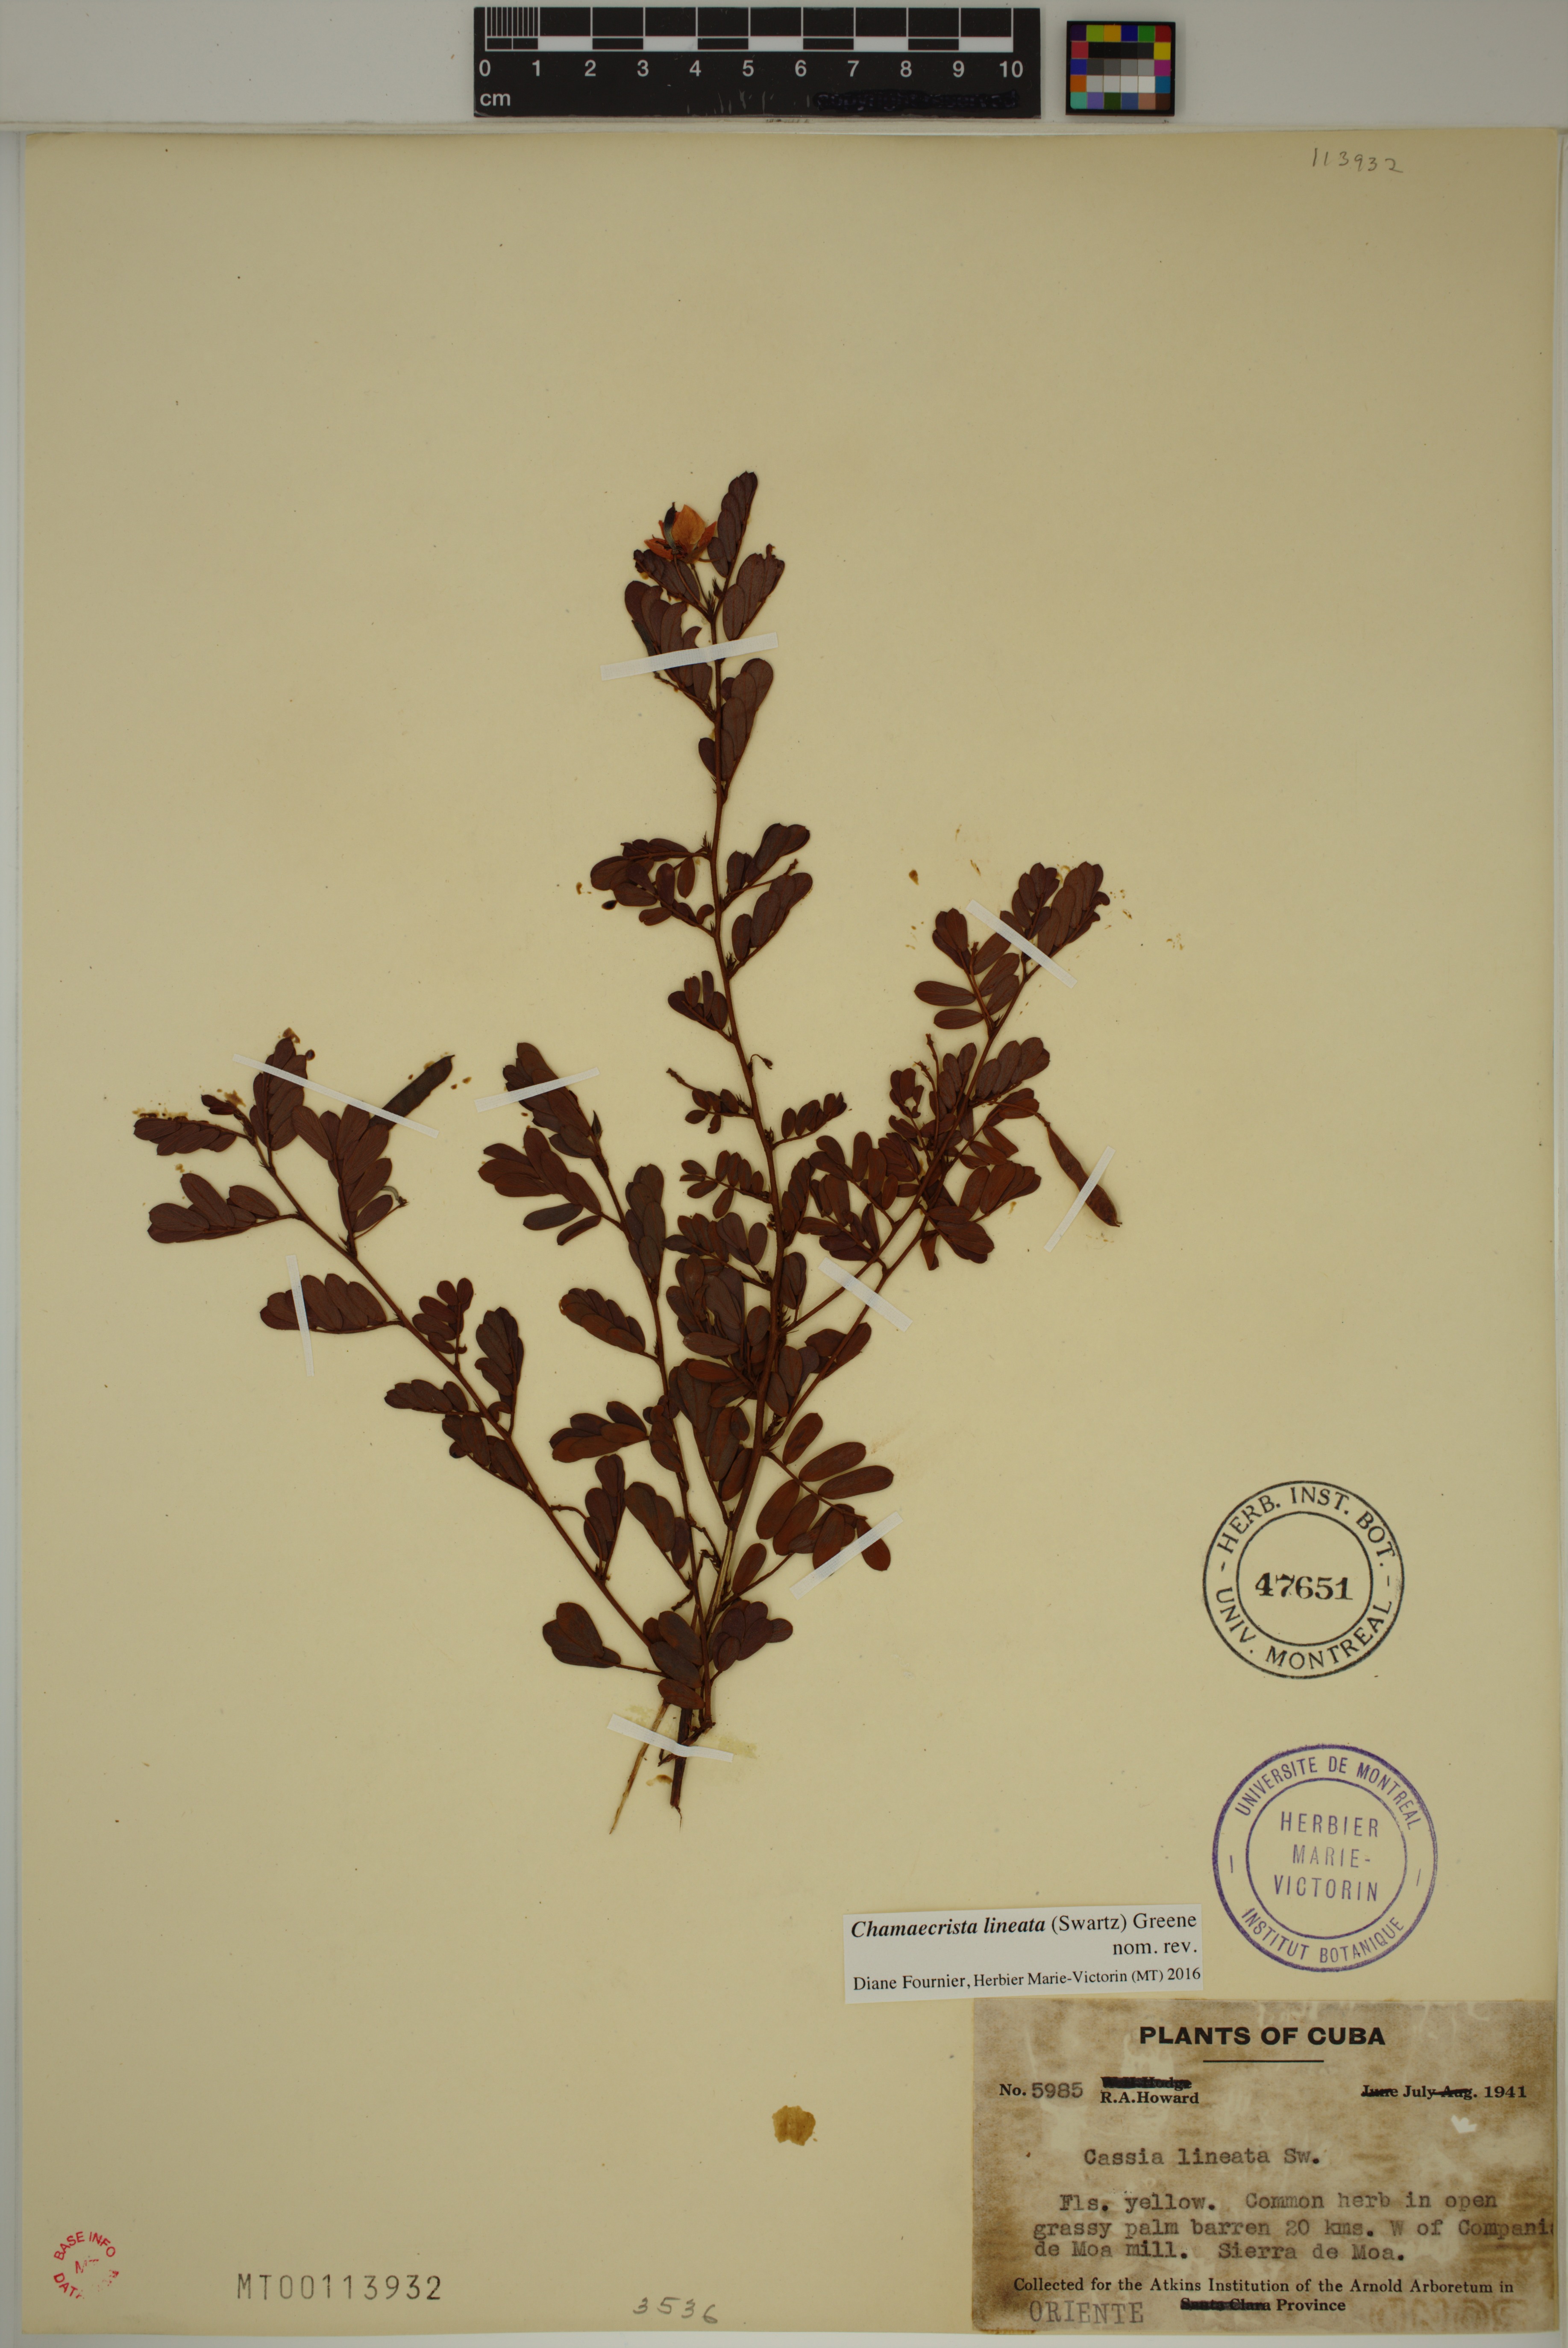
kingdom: Plantae
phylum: Tracheophyta
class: Magnoliopsida
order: Fabales
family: Fabaceae
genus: Chamaecrista
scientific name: Chamaecrista lineata
